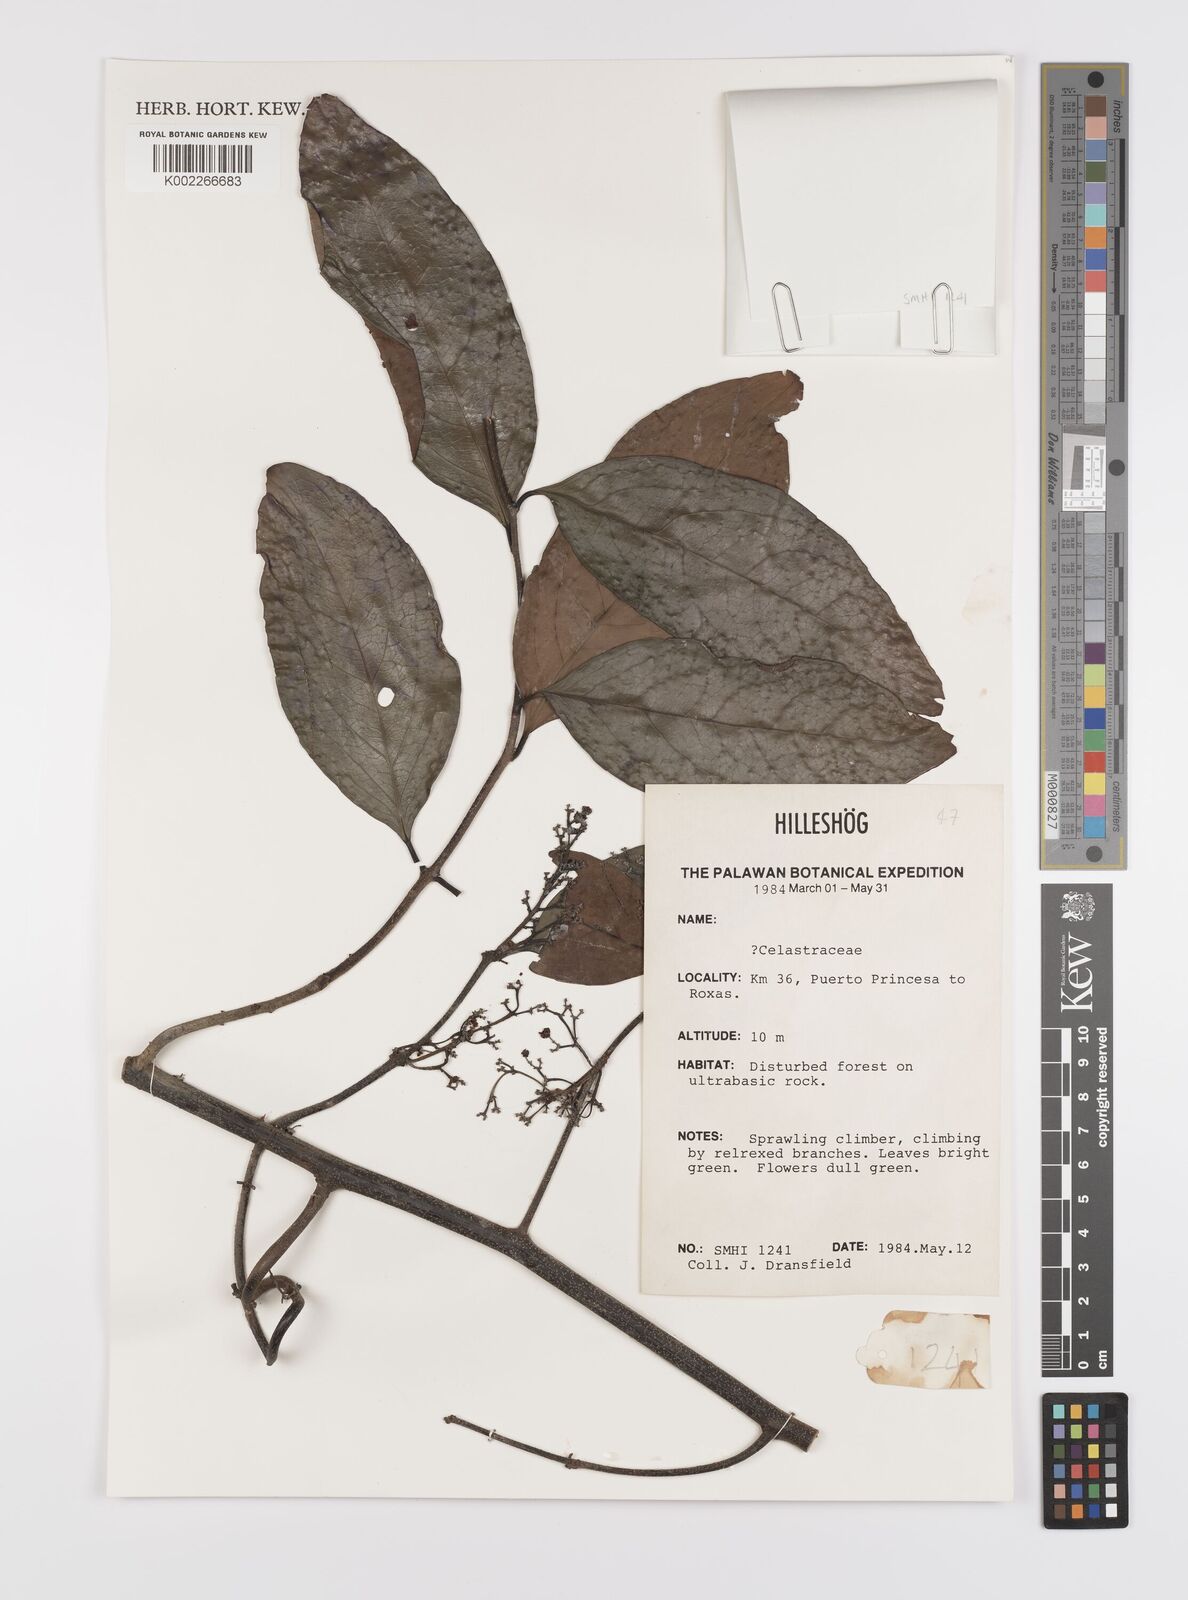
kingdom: Plantae
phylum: Tracheophyta
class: Magnoliopsida
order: Celastrales
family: Celastraceae
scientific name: Celastraceae
